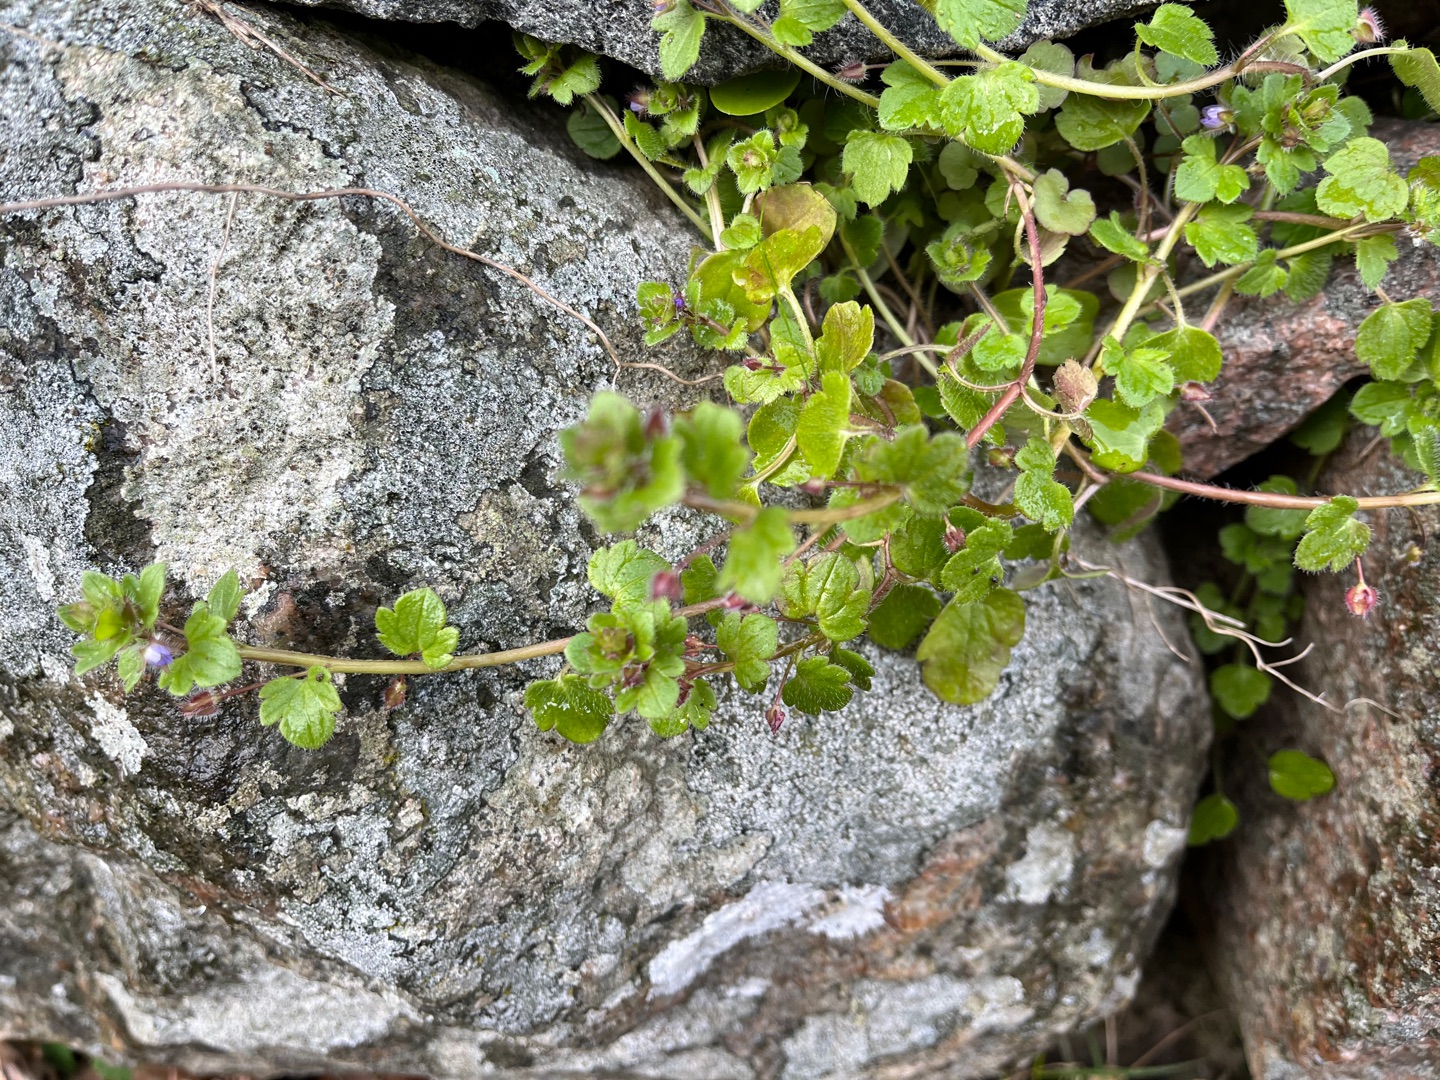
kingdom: Plantae
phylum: Tracheophyta
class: Magnoliopsida
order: Lamiales
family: Plantaginaceae
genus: Veronica
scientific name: Veronica sublobata
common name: Krat-ærenpris
